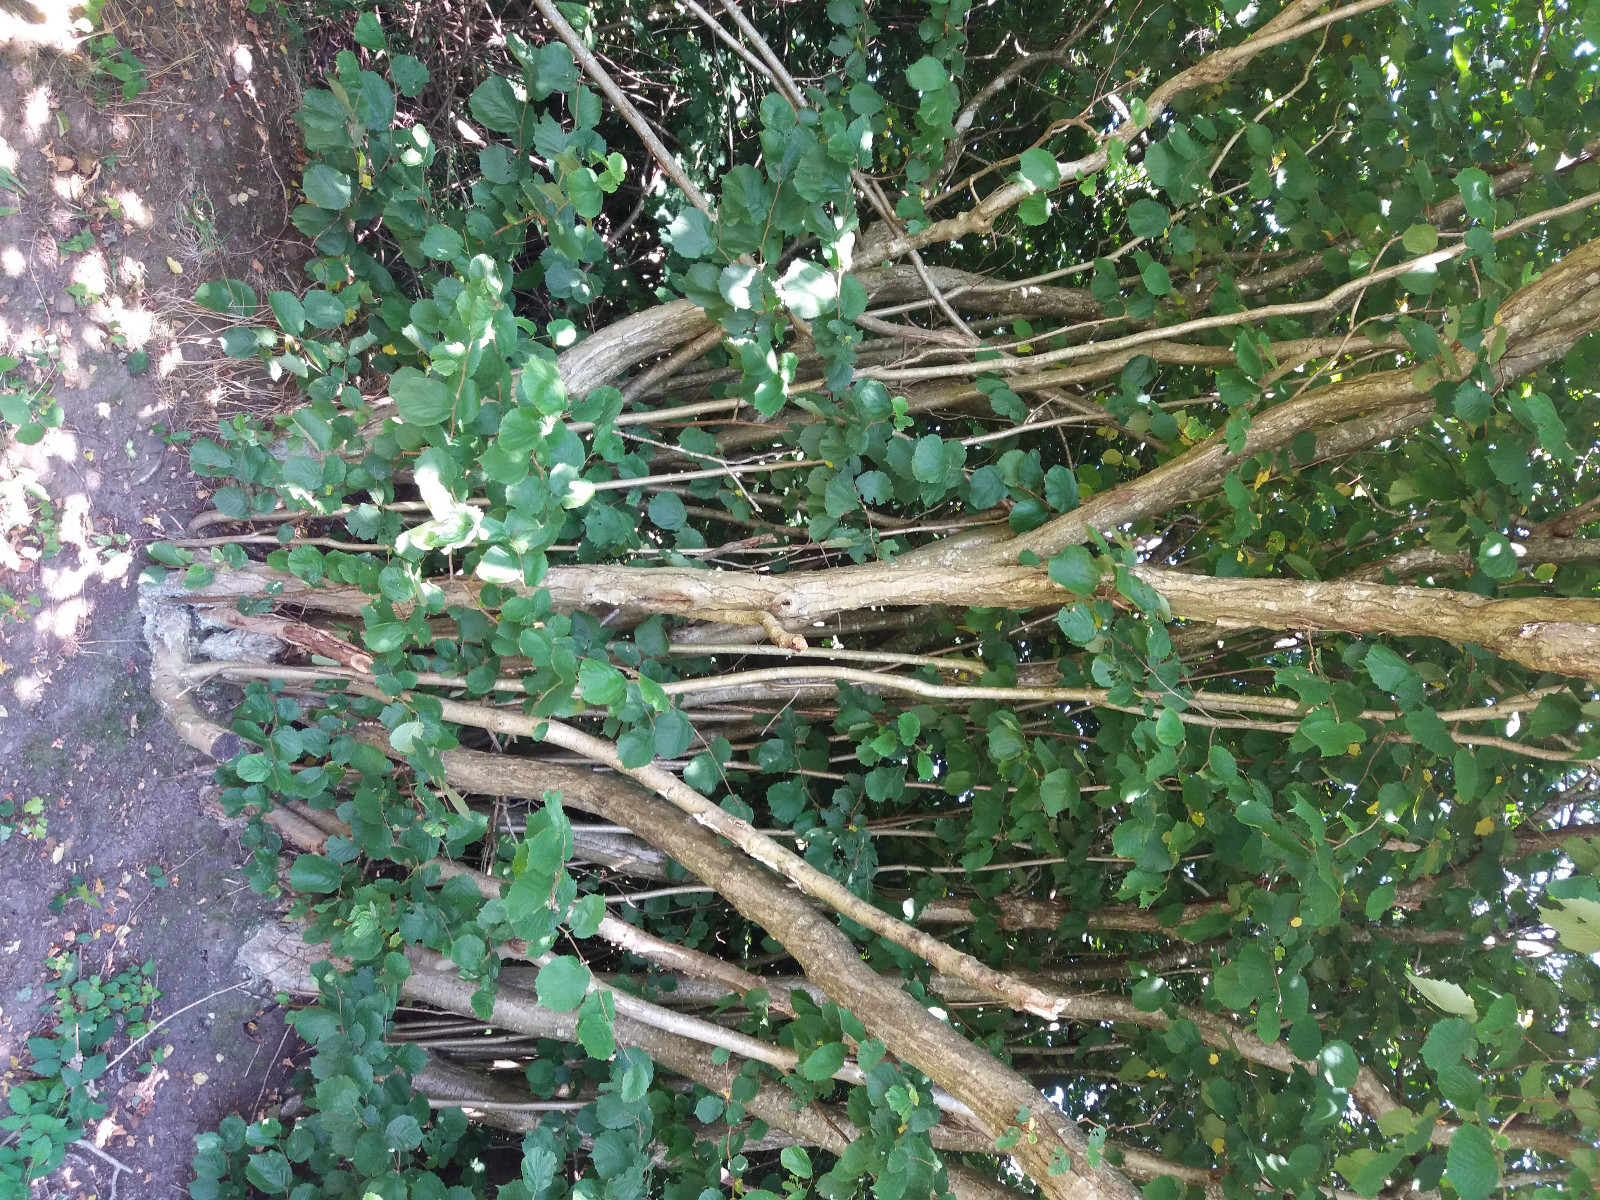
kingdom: Fungi
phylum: Basidiomycota
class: Dacrymycetes
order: Dacrymycetales
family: Dacrymycetaceae
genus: Calocera
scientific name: Calocera cornea
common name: liden guldgaffel
